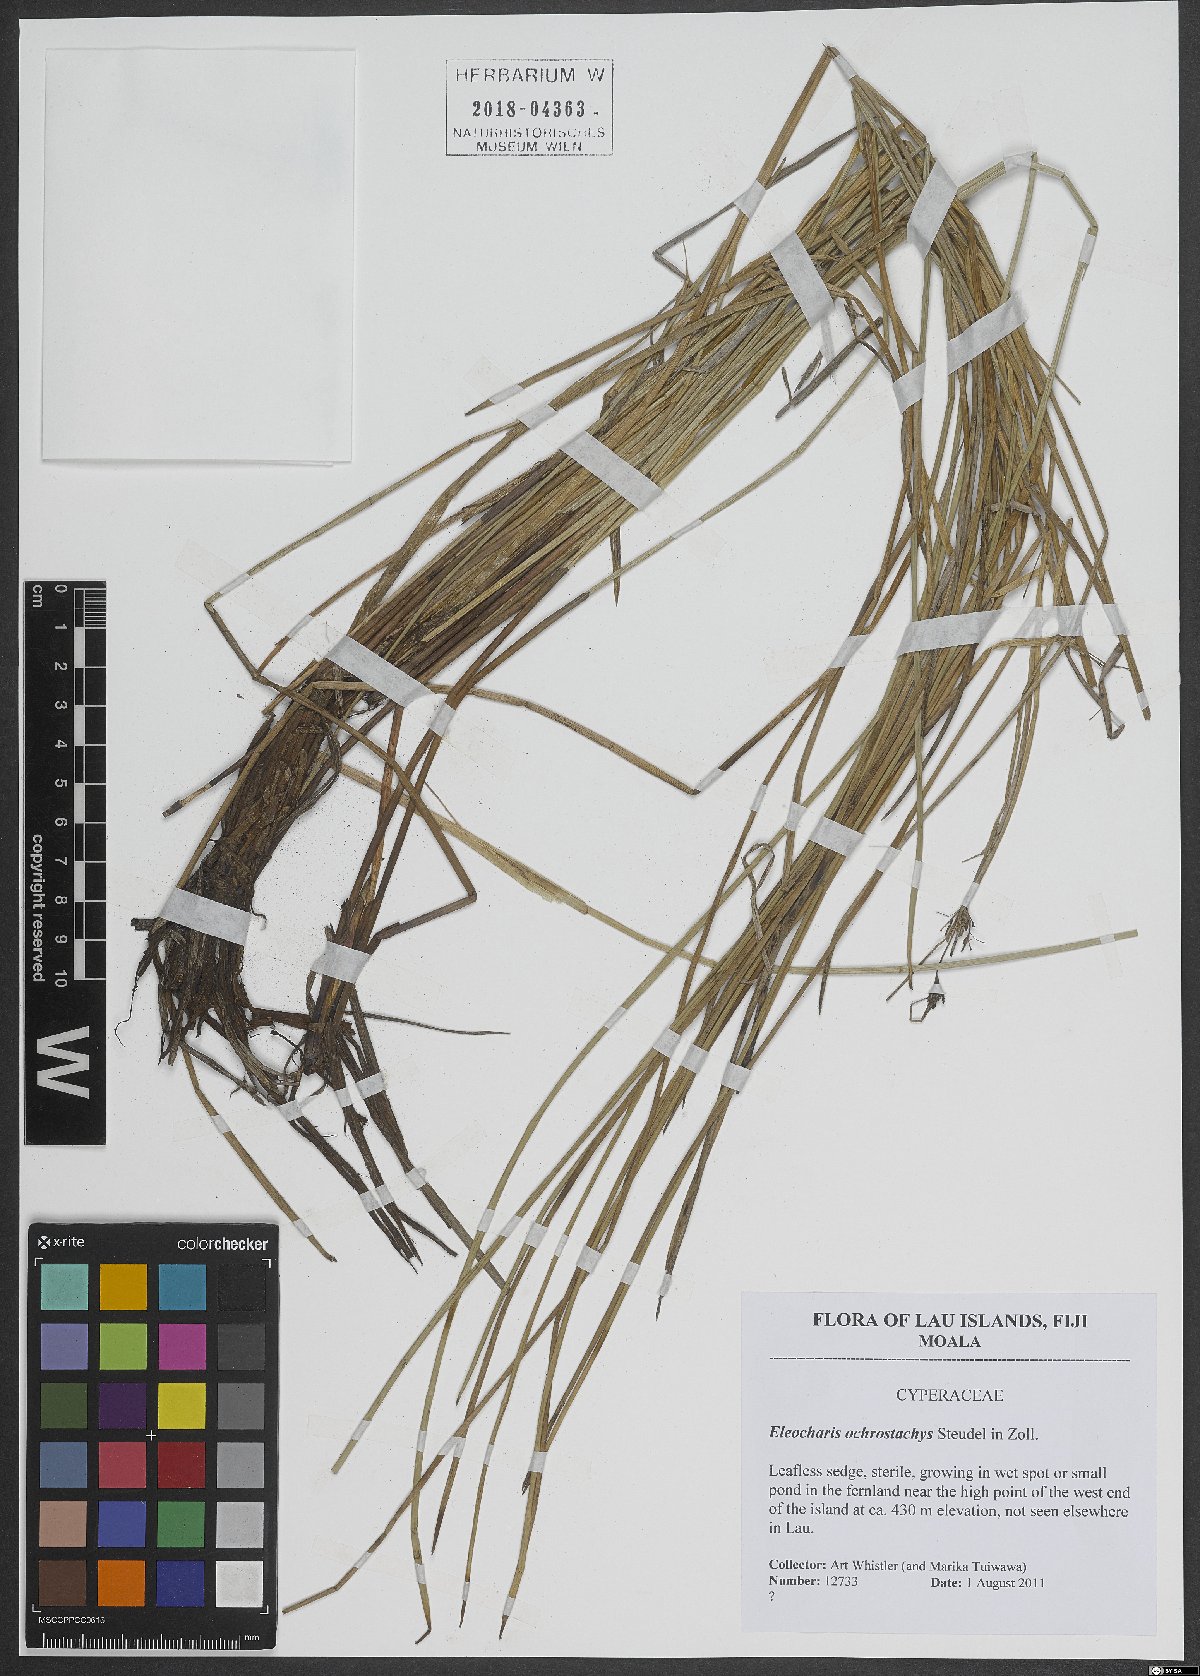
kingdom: Plantae
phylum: Tracheophyta
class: Liliopsida
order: Poales
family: Cyperaceae
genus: Eleocharis
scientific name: Eleocharis ochrostachys
